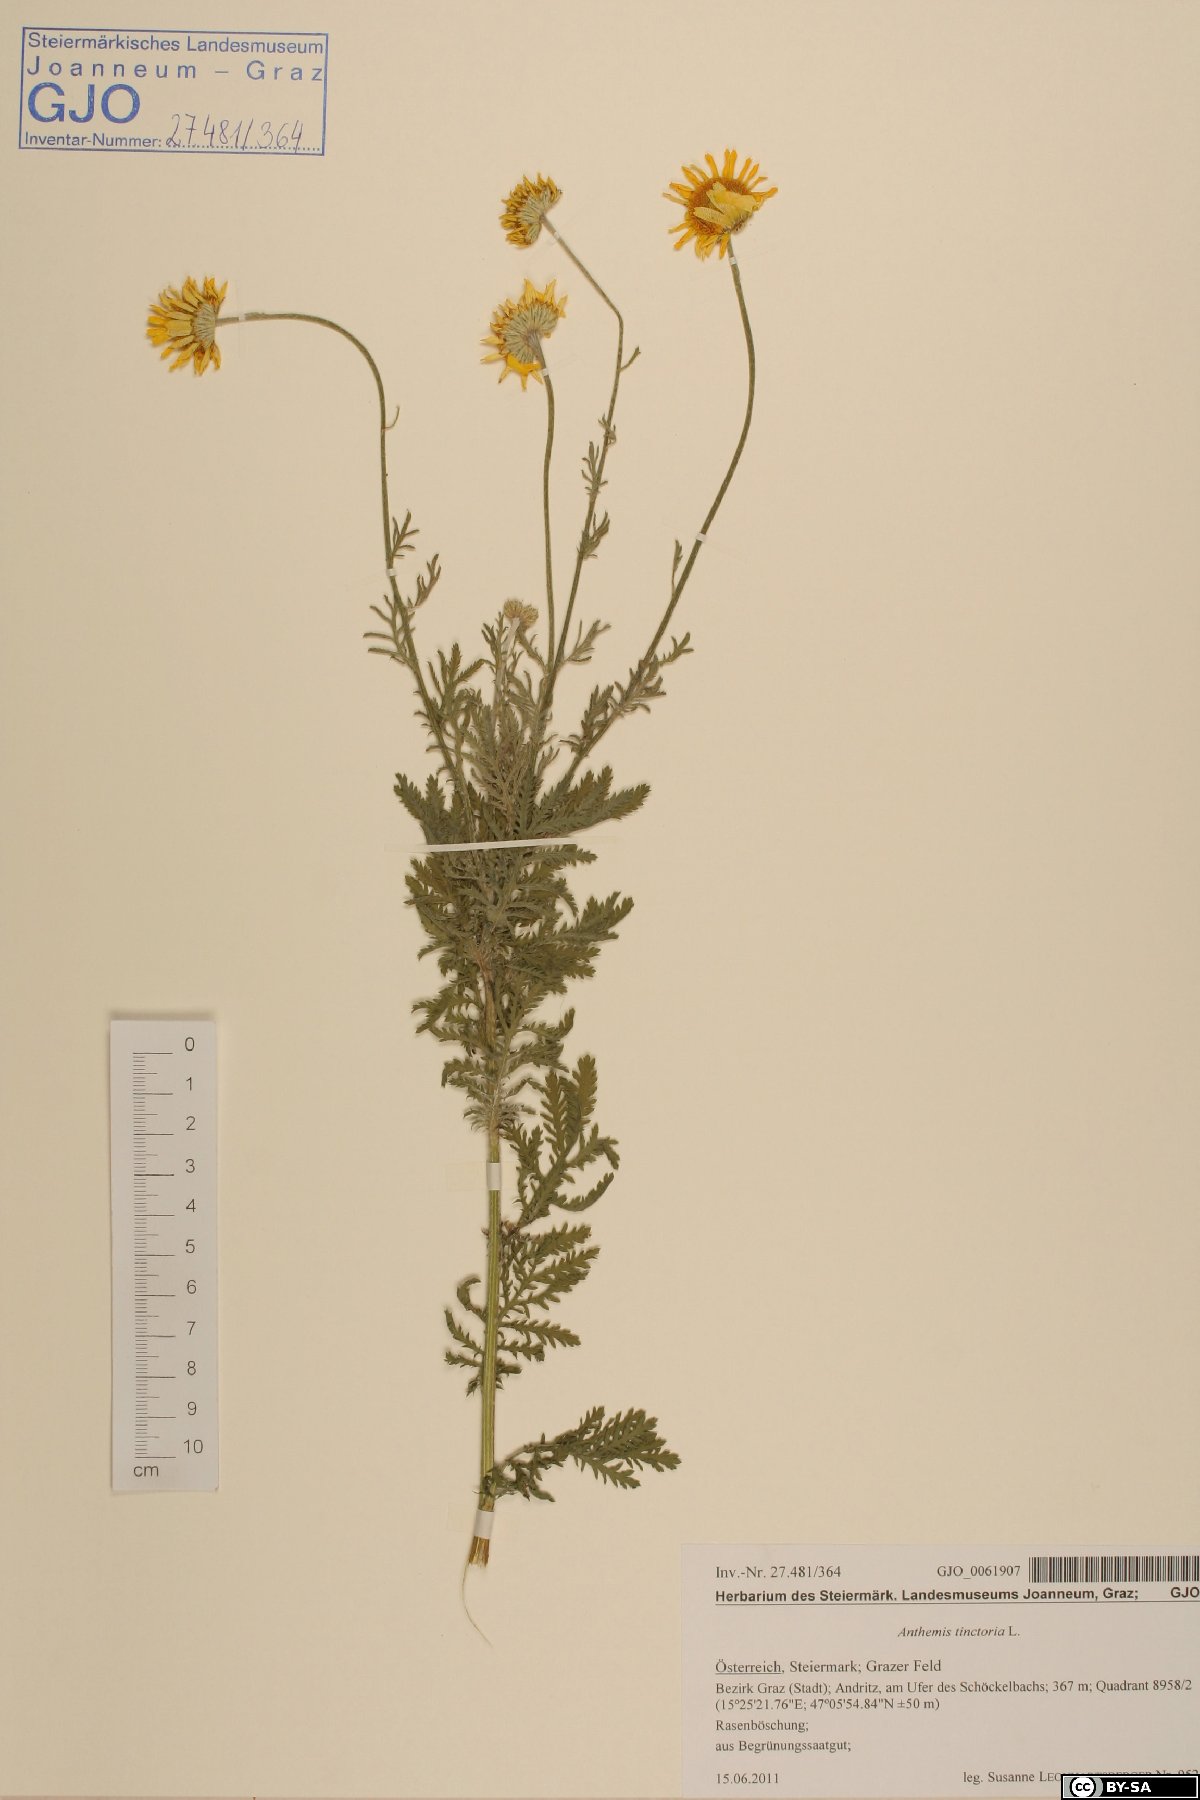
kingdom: Plantae
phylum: Tracheophyta
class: Magnoliopsida
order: Asterales
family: Asteraceae
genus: Cota
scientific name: Cota tinctoria
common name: Golden chamomile
